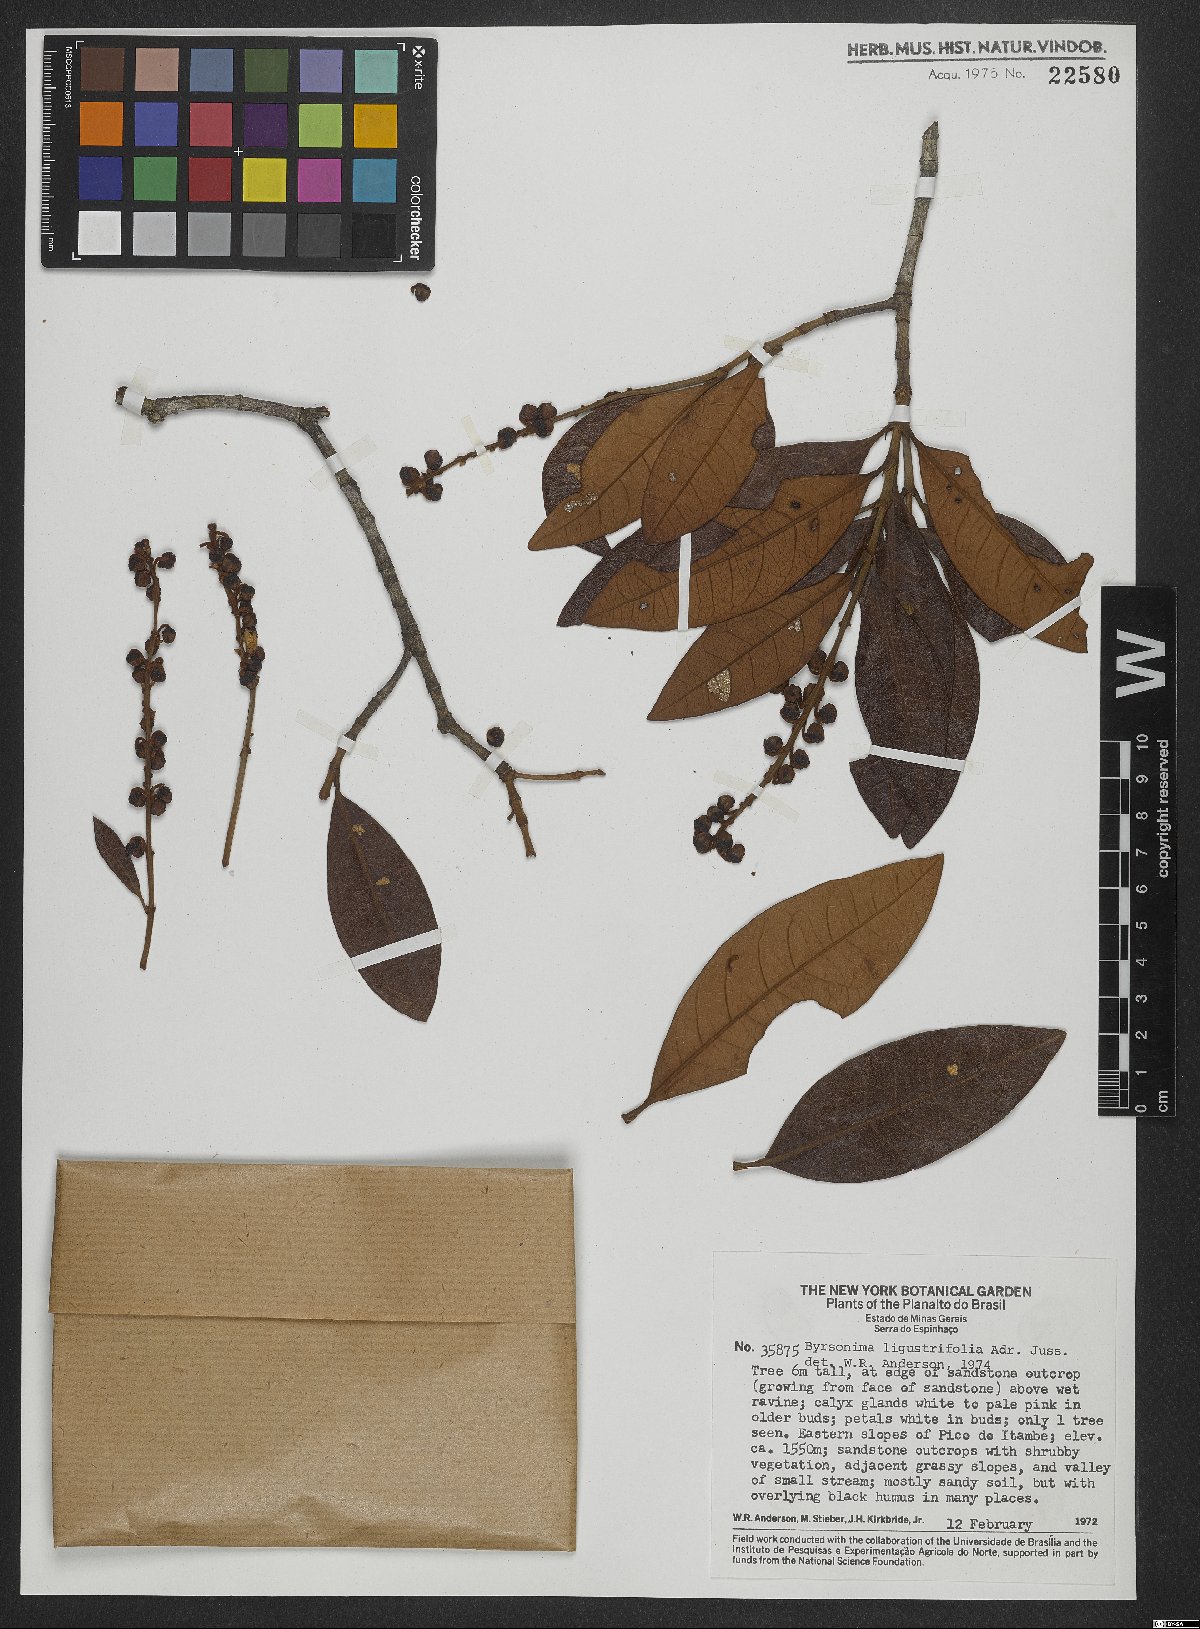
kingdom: Plantae
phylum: Tracheophyta
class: Magnoliopsida
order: Malpighiales
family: Malpighiaceae
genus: Byrsonima
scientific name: Byrsonima ligustrifolia
